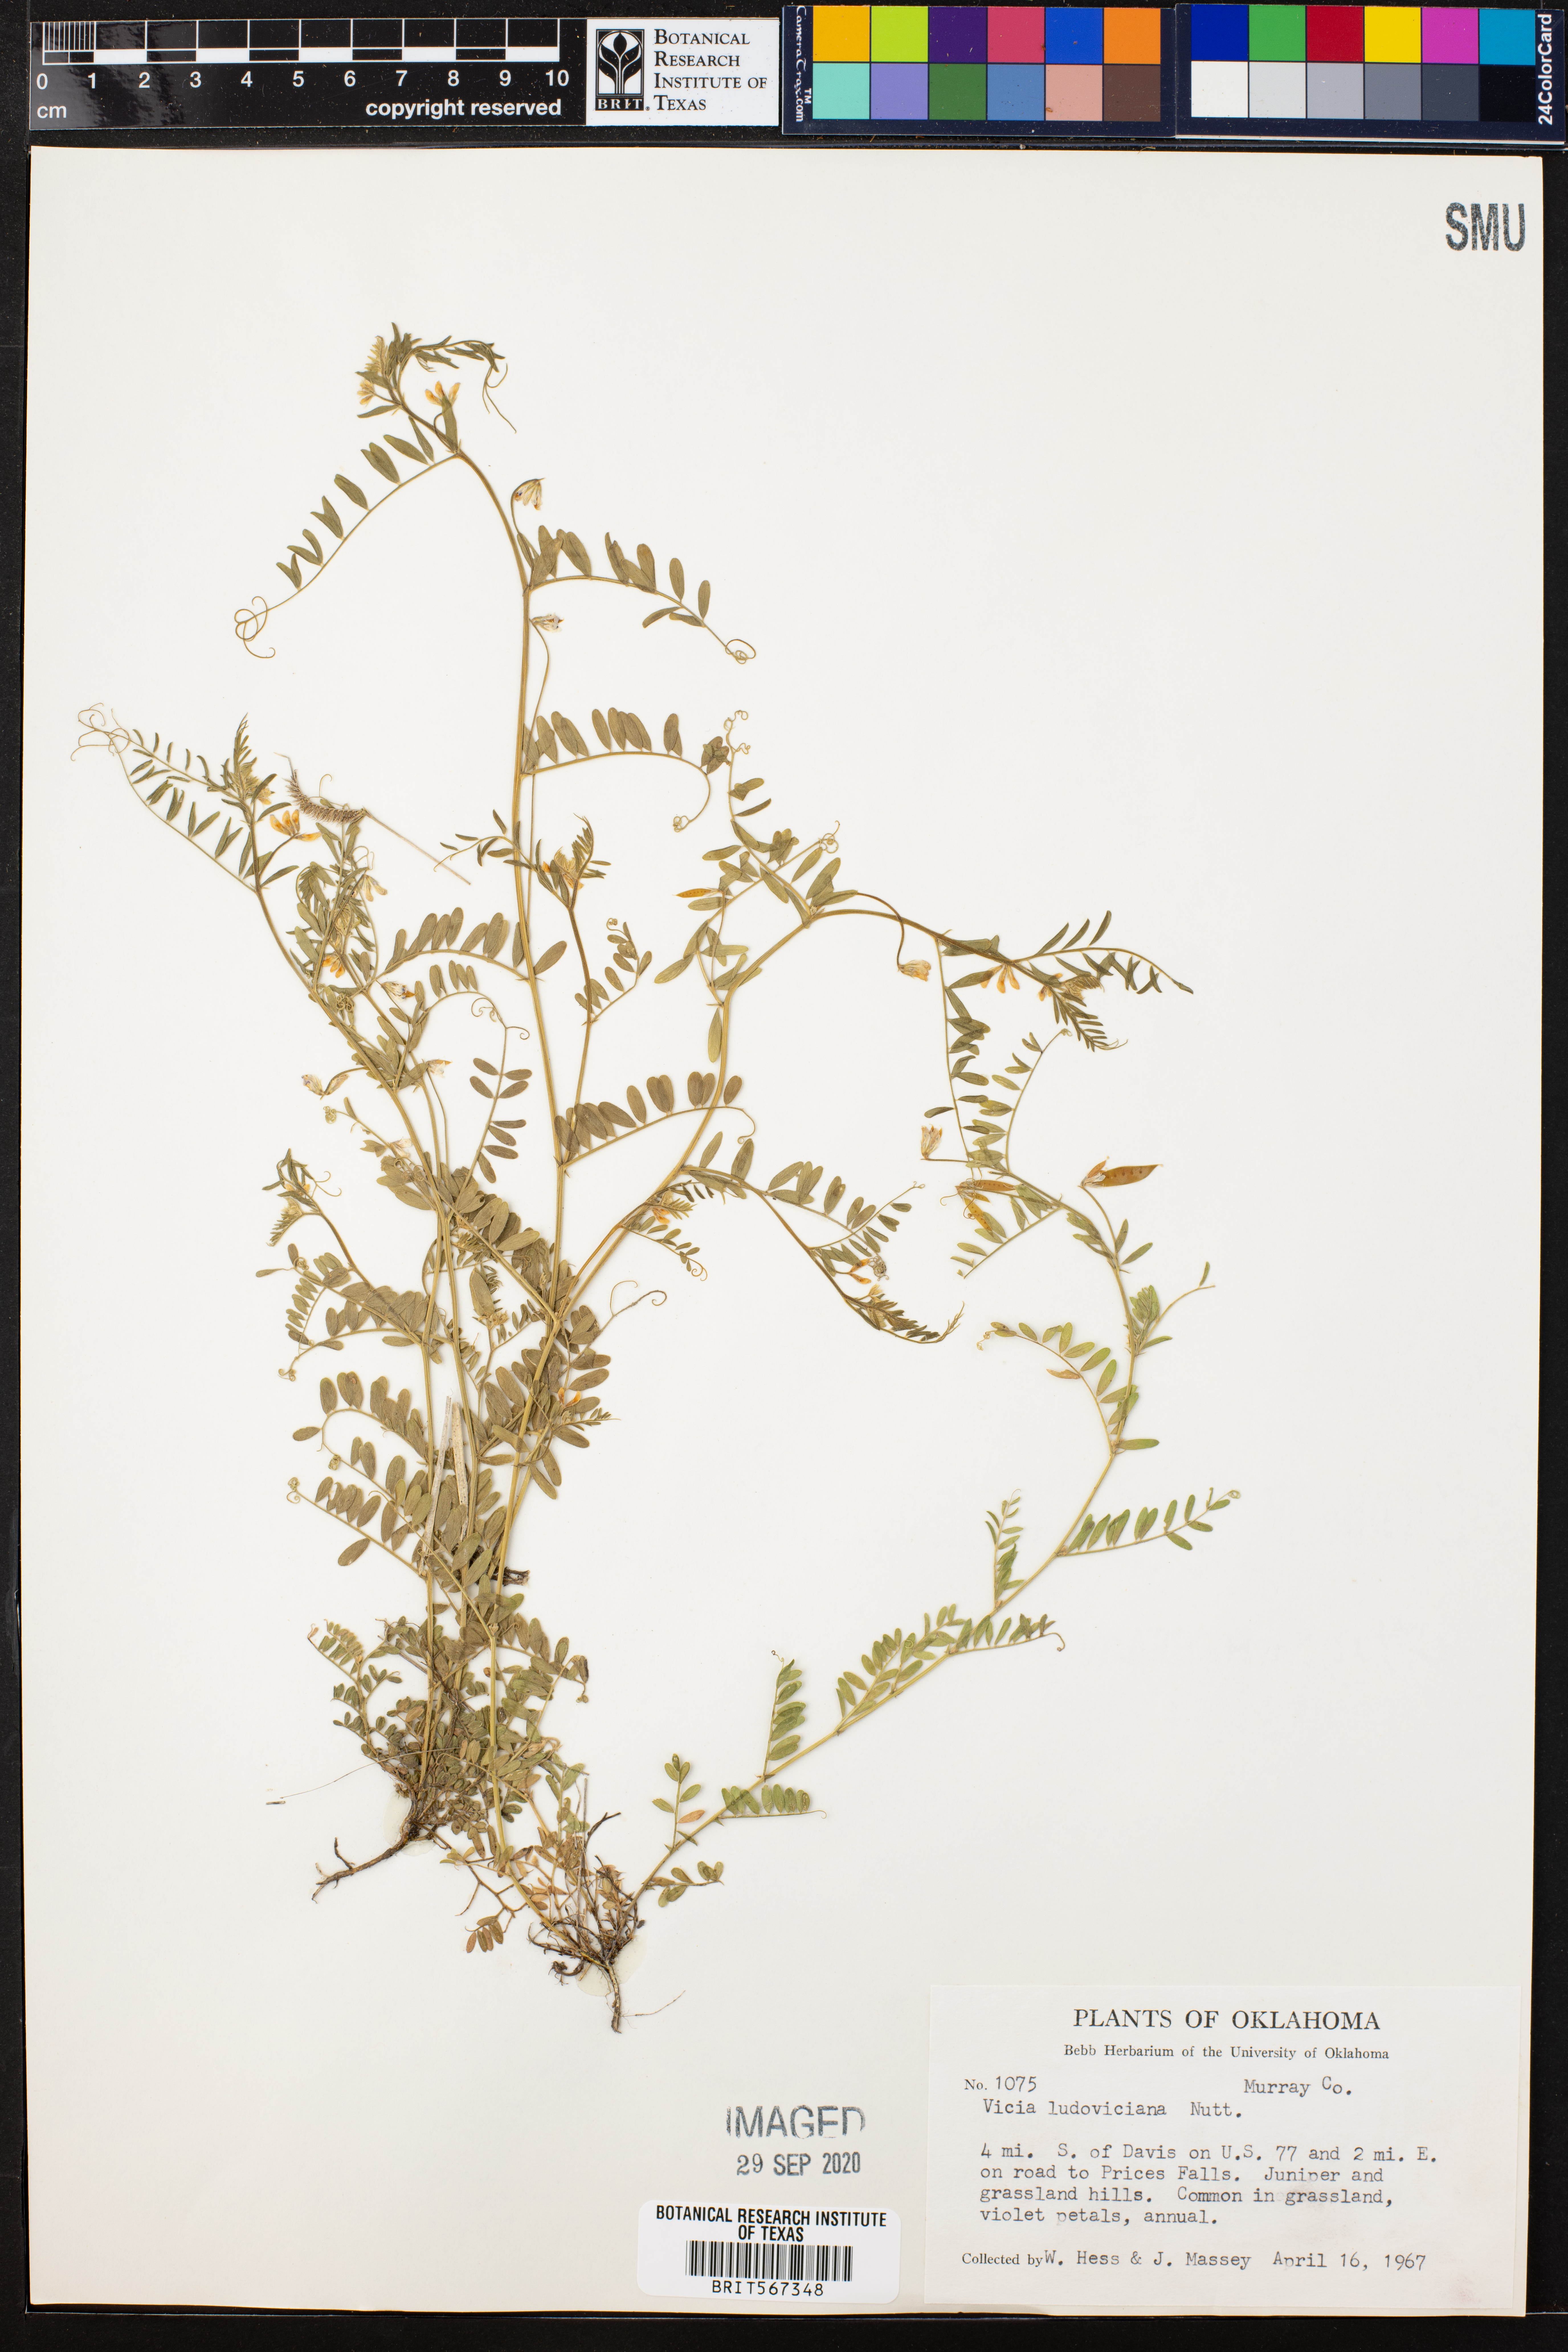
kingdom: Plantae
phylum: Tracheophyta
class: Magnoliopsida
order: Fabales
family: Fabaceae
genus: Vicia
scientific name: Vicia ludoviciana
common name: Louisiana vetch
